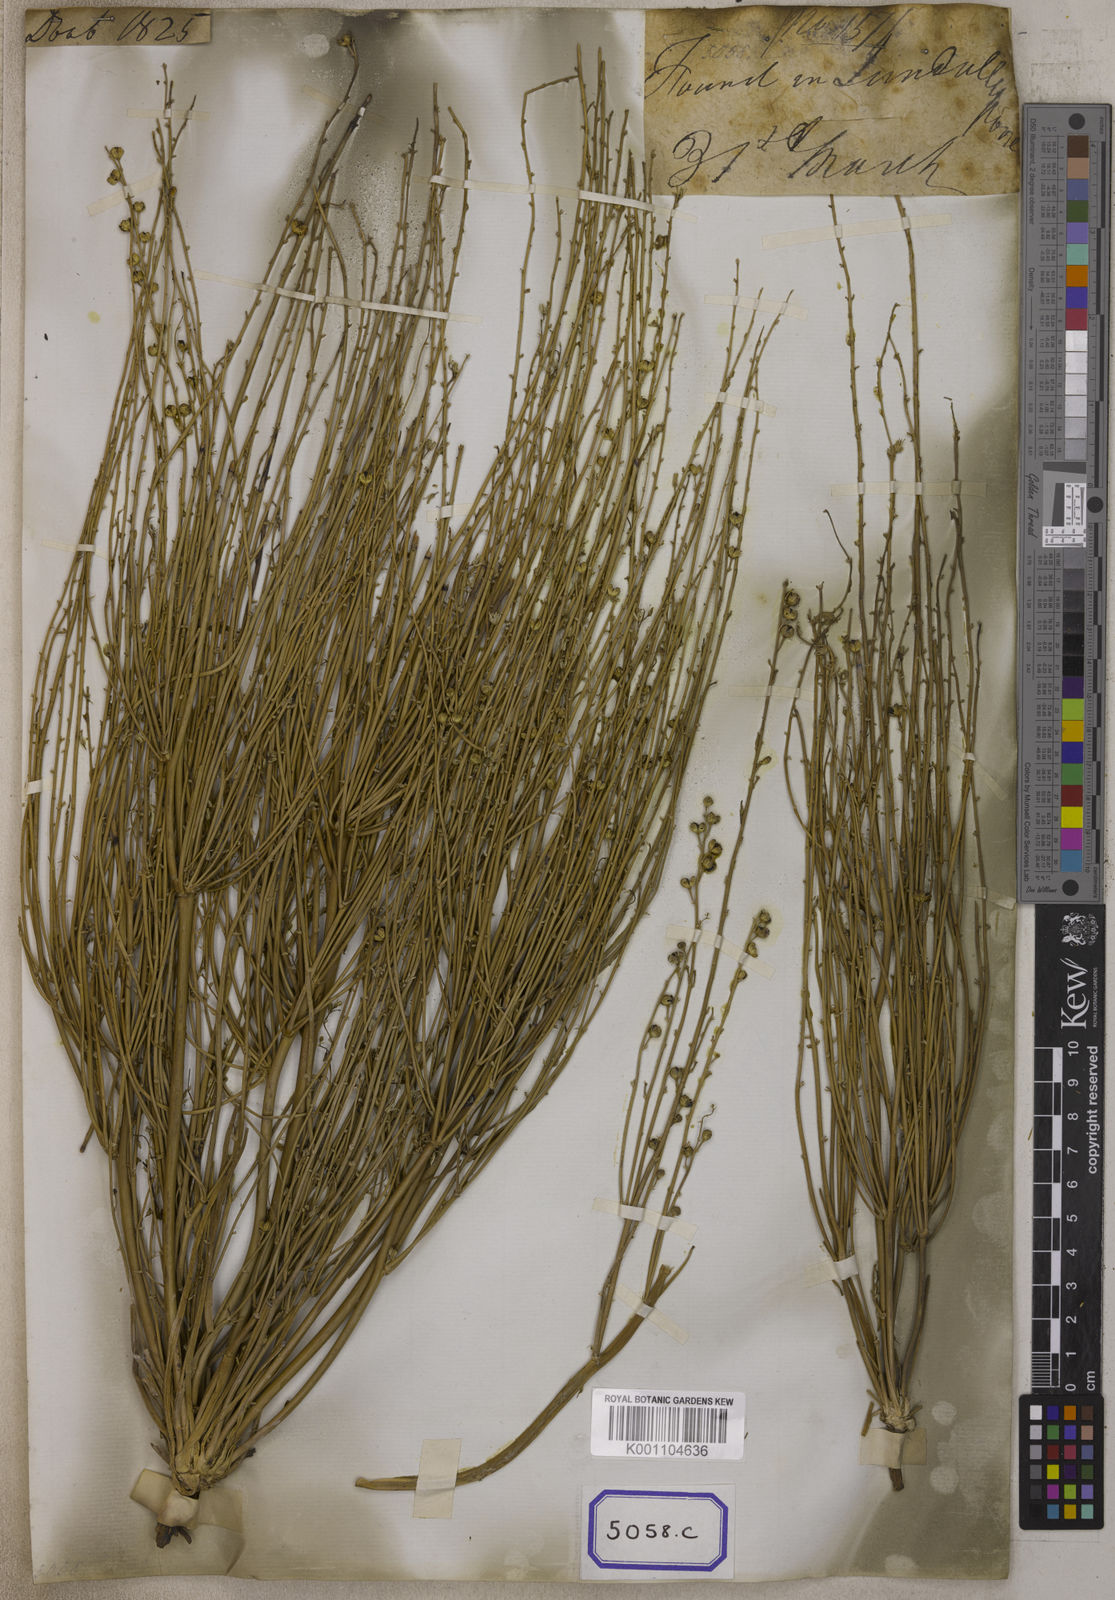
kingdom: Plantae
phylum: Tracheophyta
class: Liliopsida
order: Asparagales
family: Asphodelaceae
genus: Asphodelus
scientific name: Asphodelus
